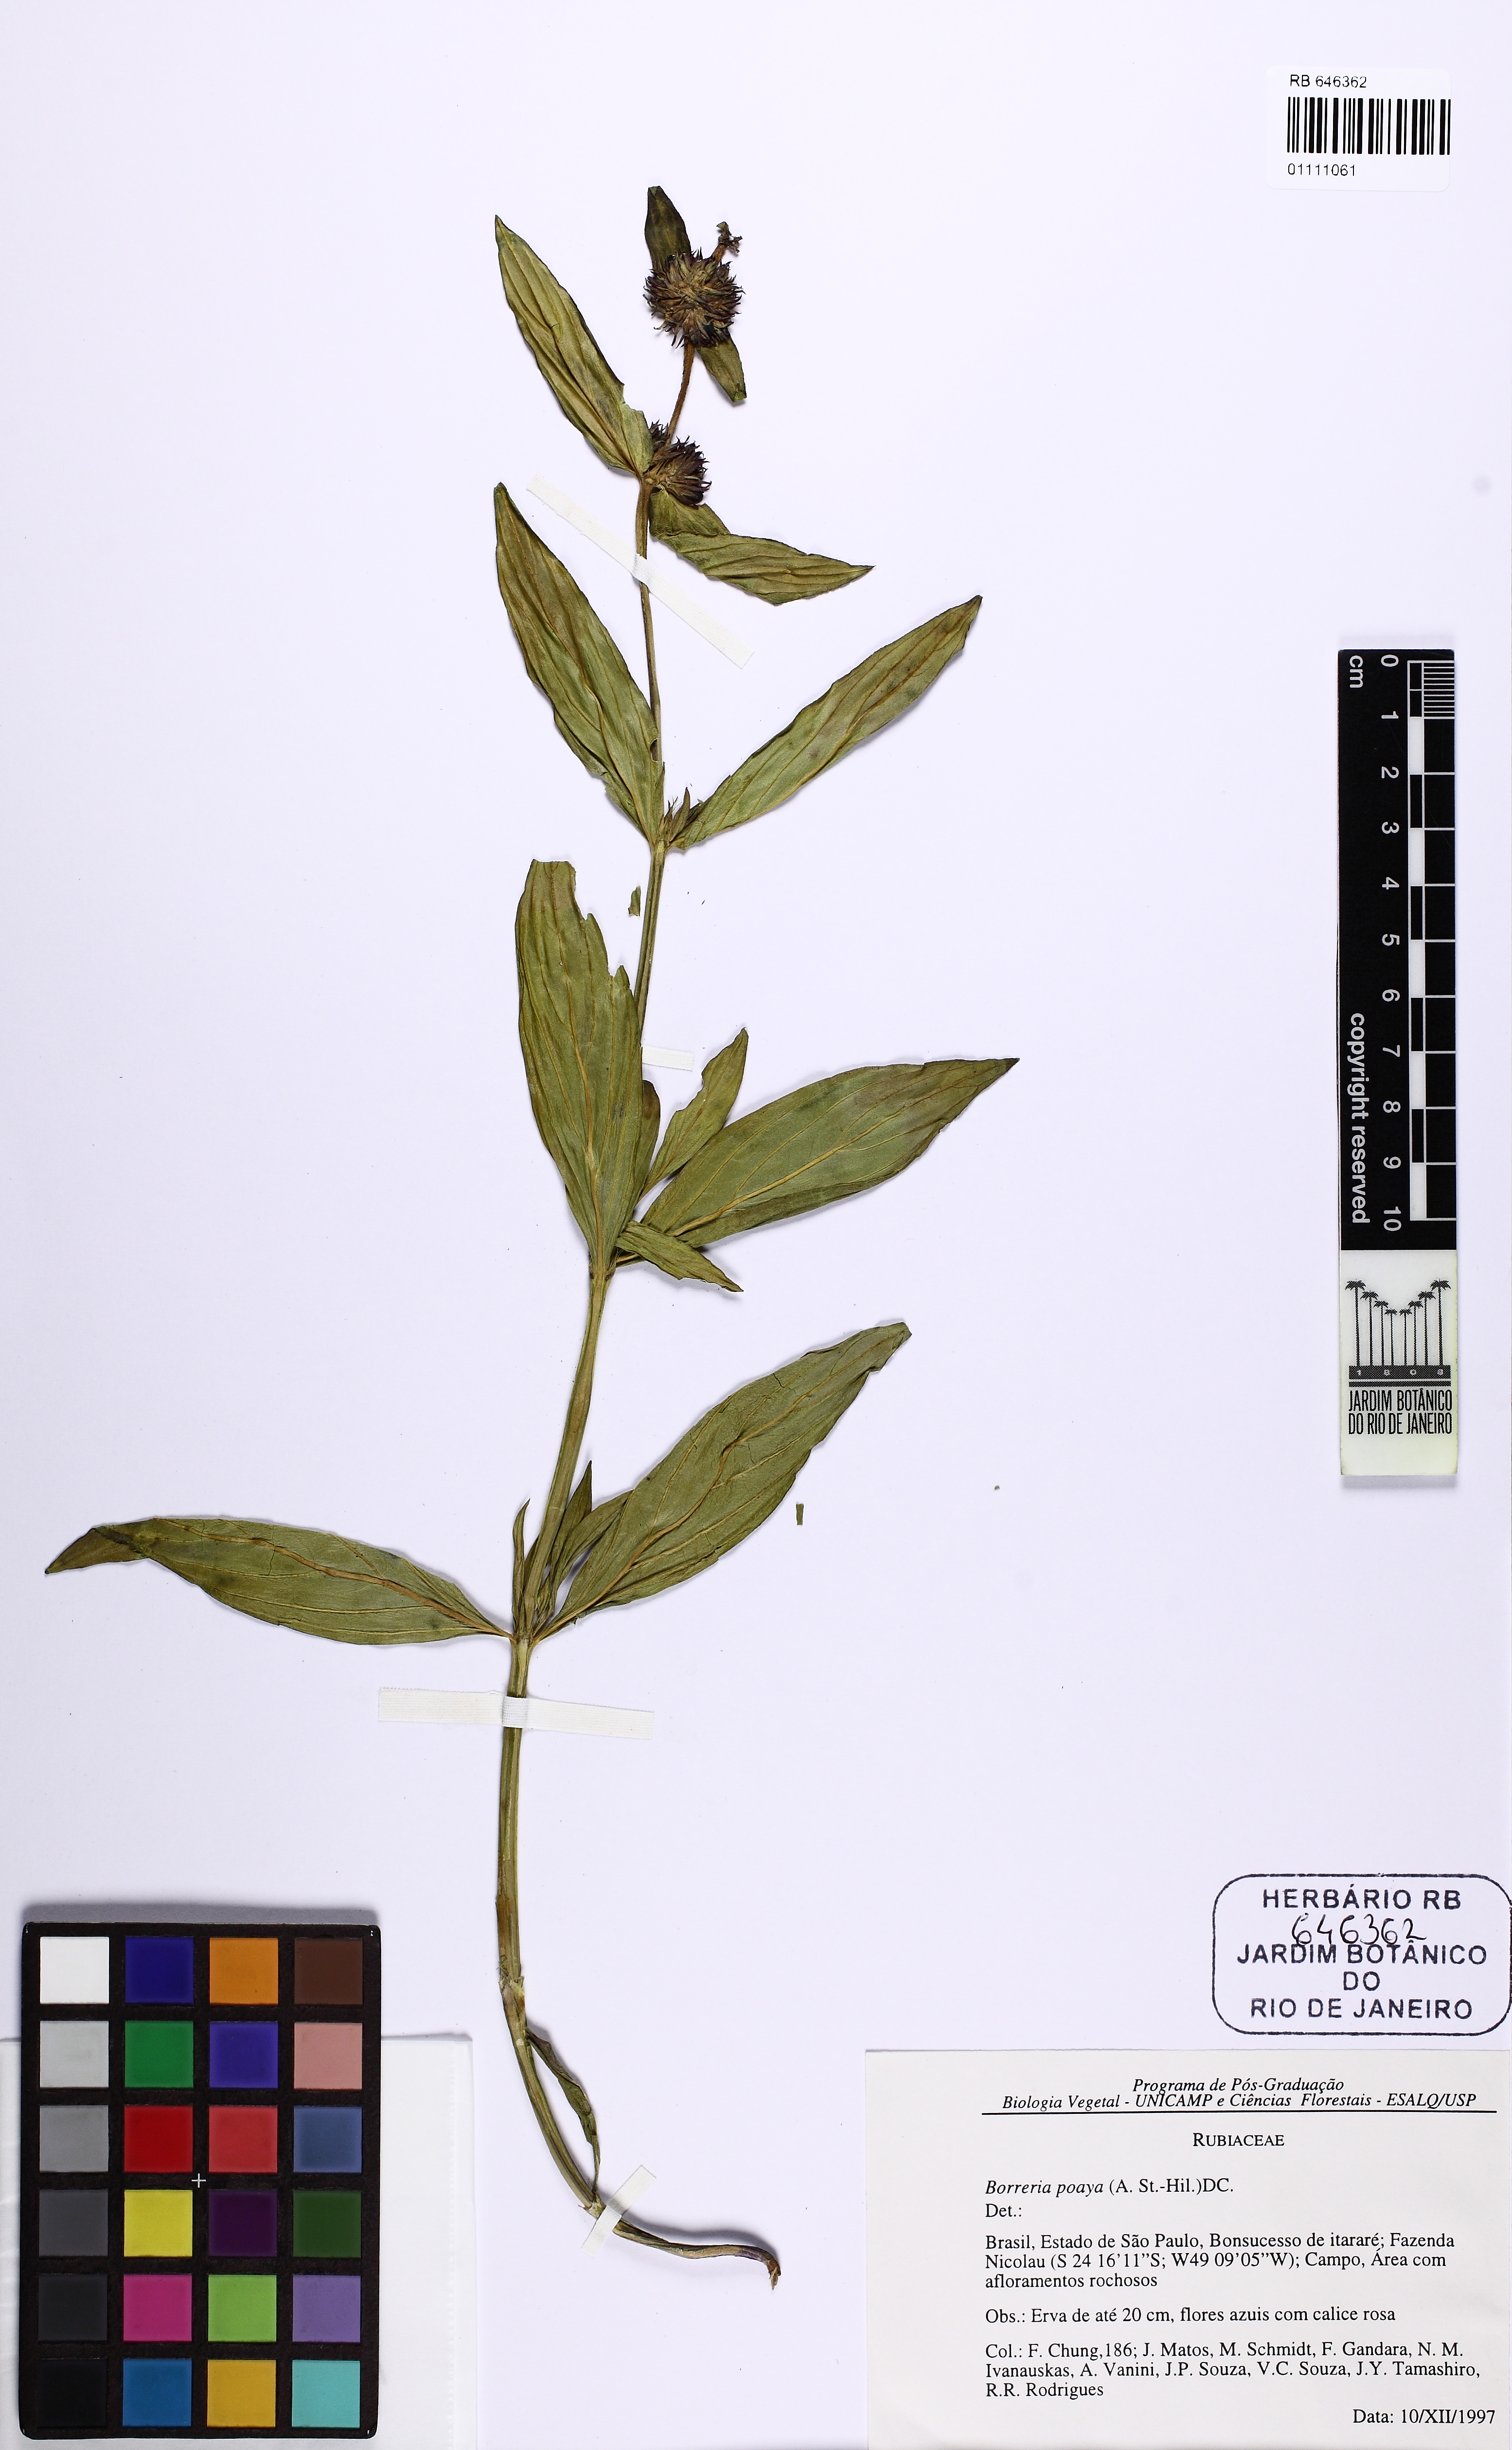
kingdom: Plantae
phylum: Tracheophyta
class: Magnoliopsida
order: Gentianales
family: Rubiaceae
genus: Spermacoce
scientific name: Spermacoce poaya
